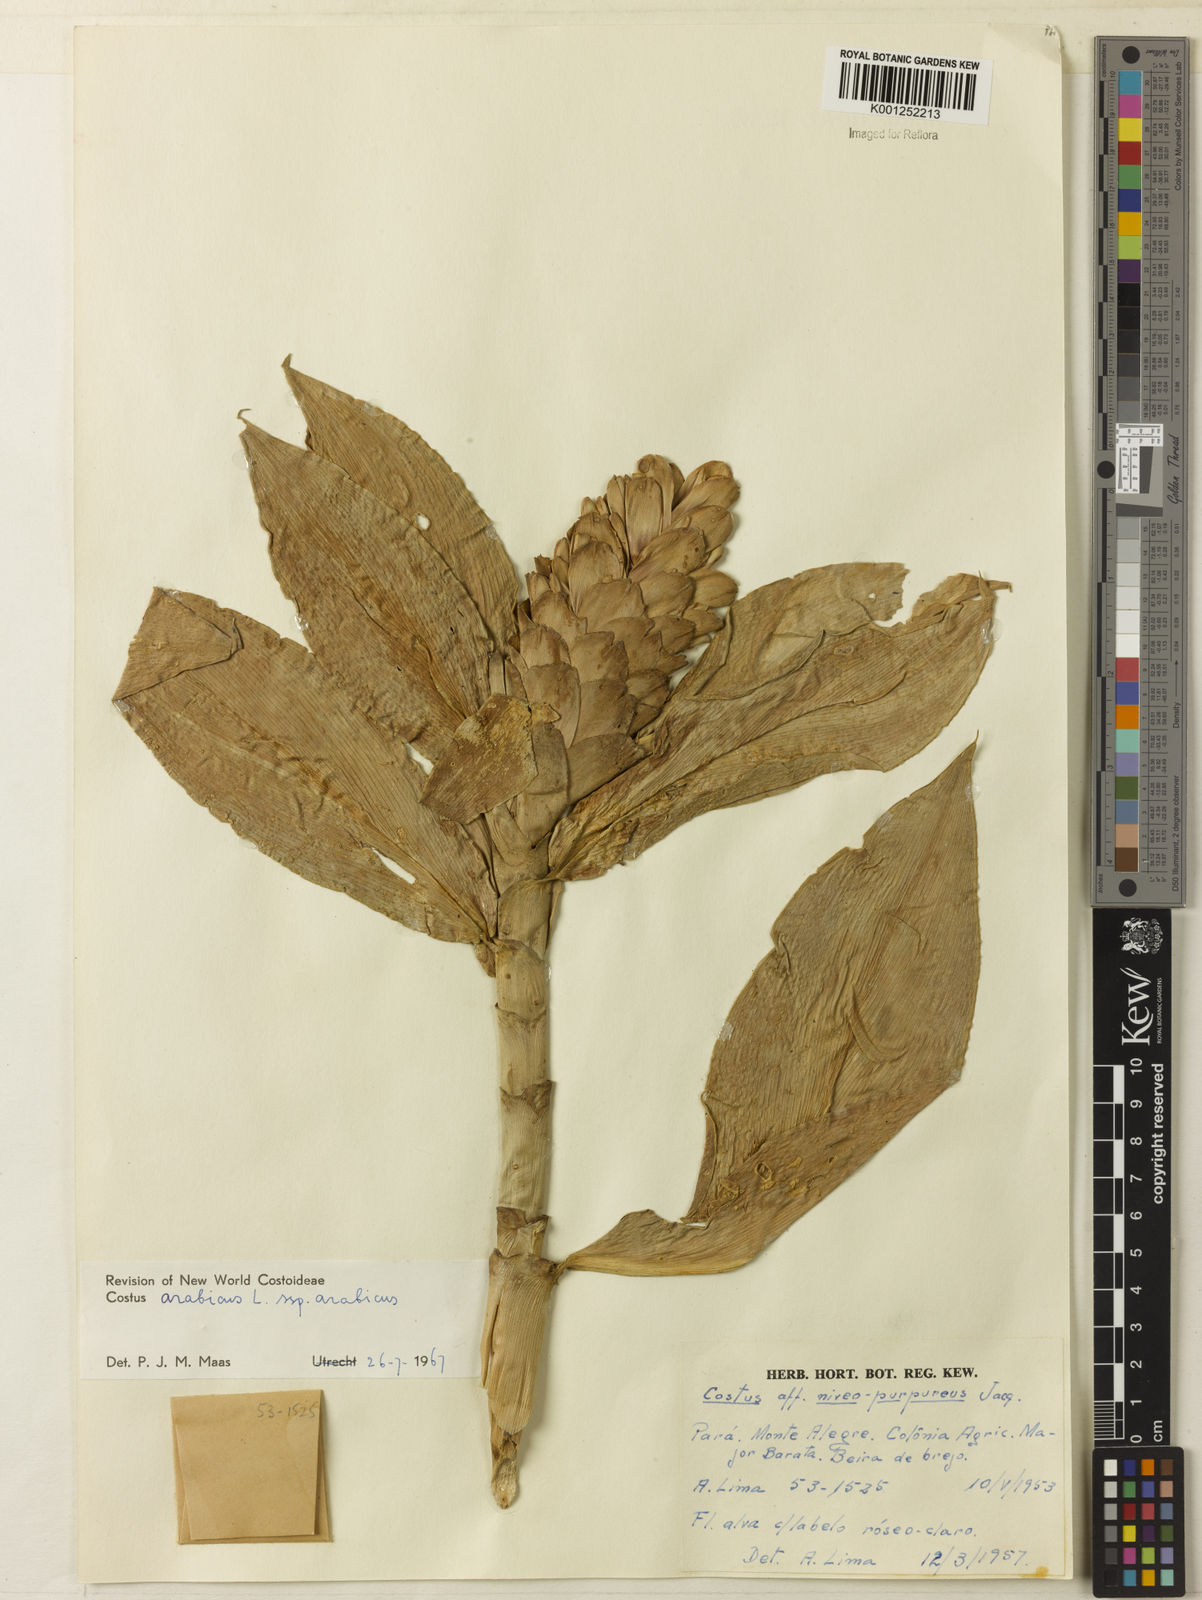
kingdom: Plantae
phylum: Tracheophyta
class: Liliopsida
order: Zingiberales
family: Costaceae
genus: Costus
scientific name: Costus arabicus
